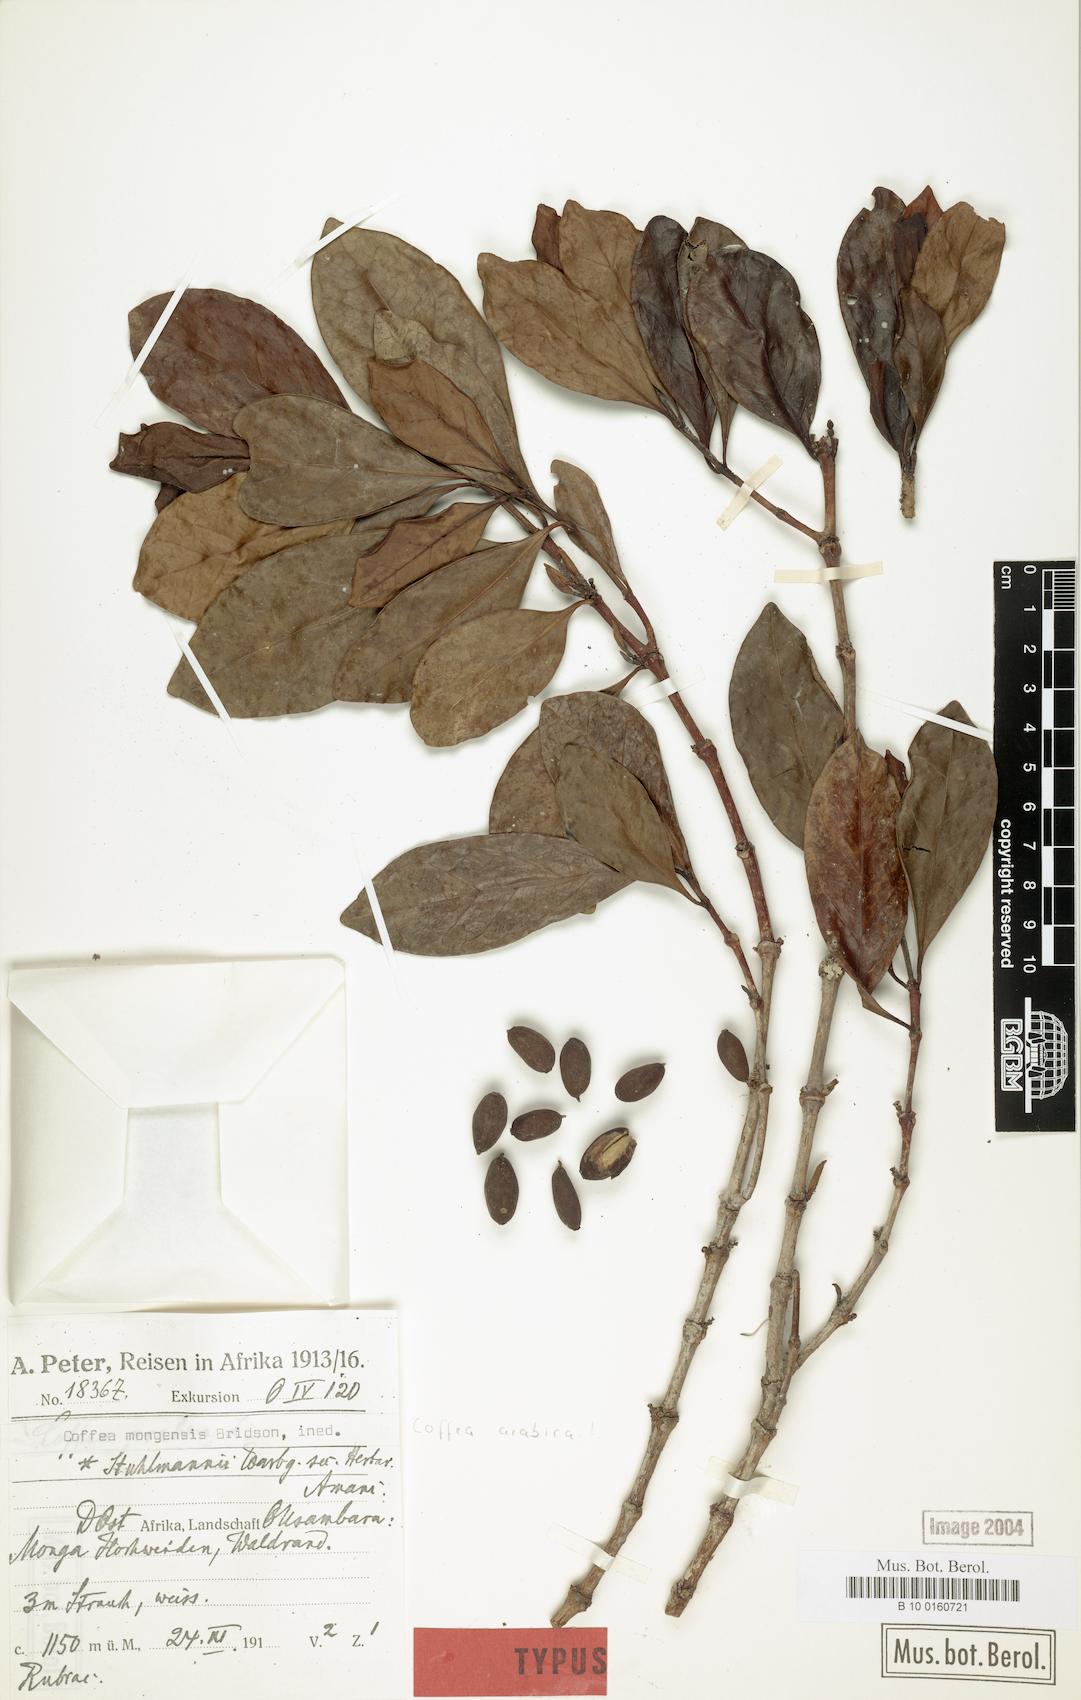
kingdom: Plantae
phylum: Tracheophyta
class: Magnoliopsida
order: Gentianales
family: Rubiaceae
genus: Coffea
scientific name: Coffea mongensis
